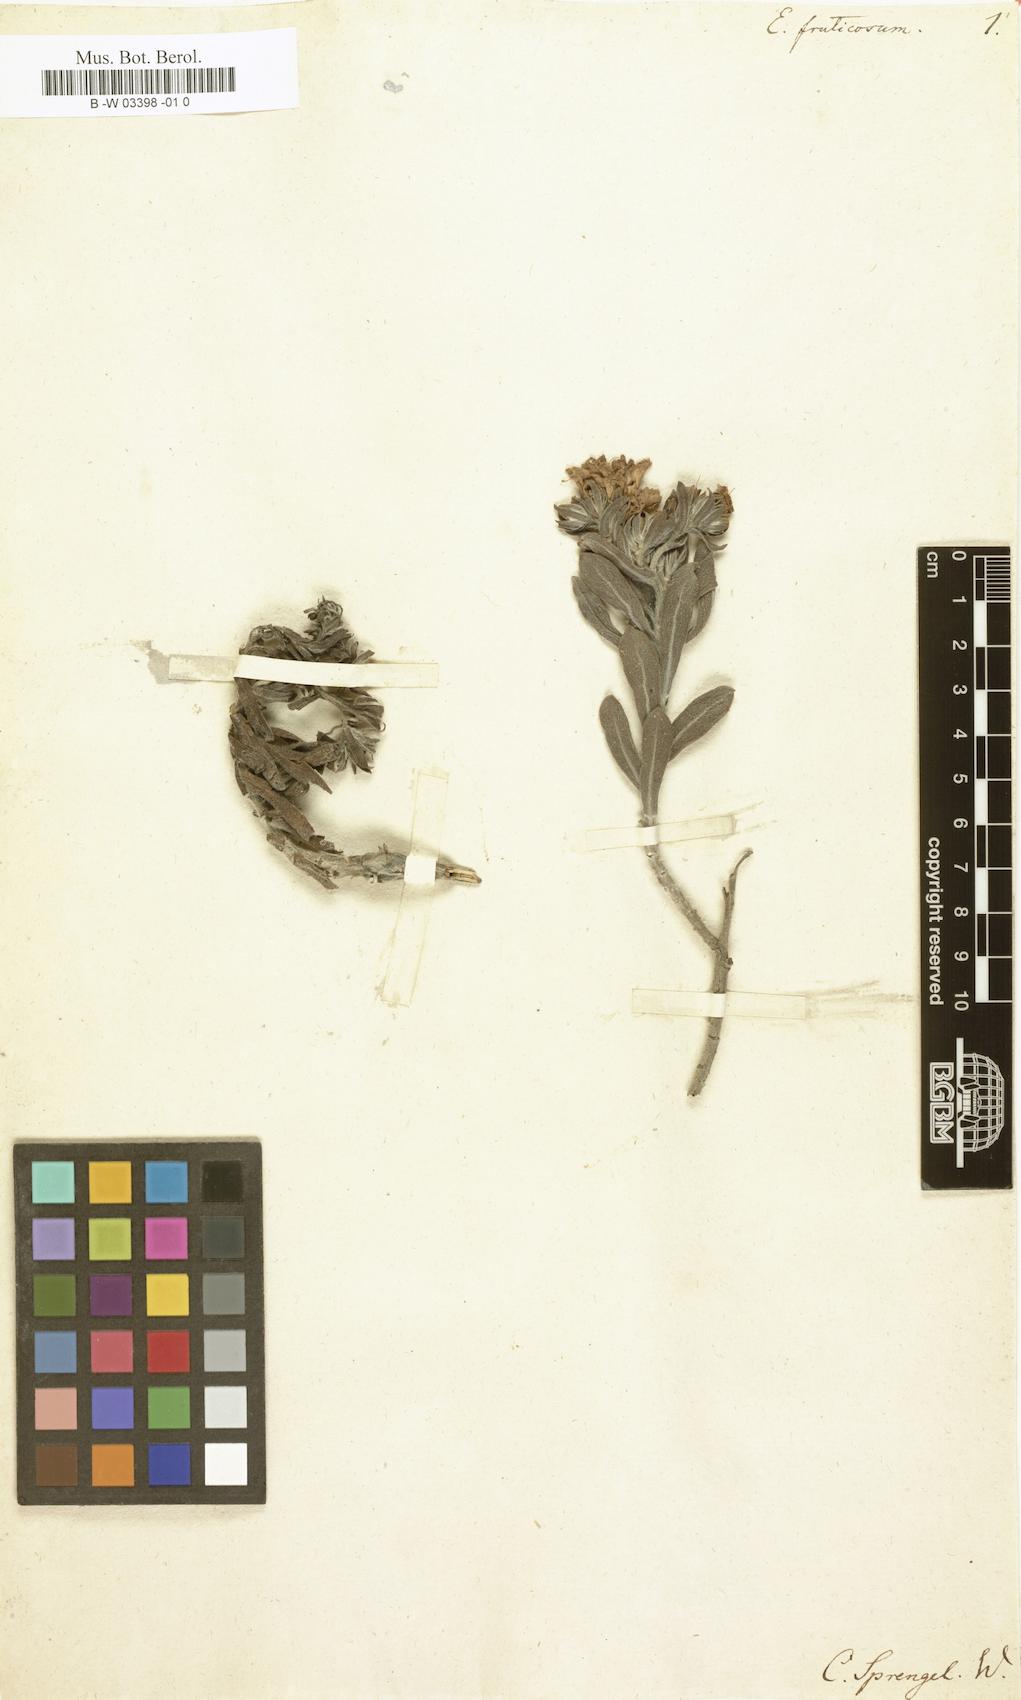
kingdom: Plantae
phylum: Tracheophyta
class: Magnoliopsida
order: Boraginales
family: Boraginaceae
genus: Lobostemon
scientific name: Lobostemon fruticosus
